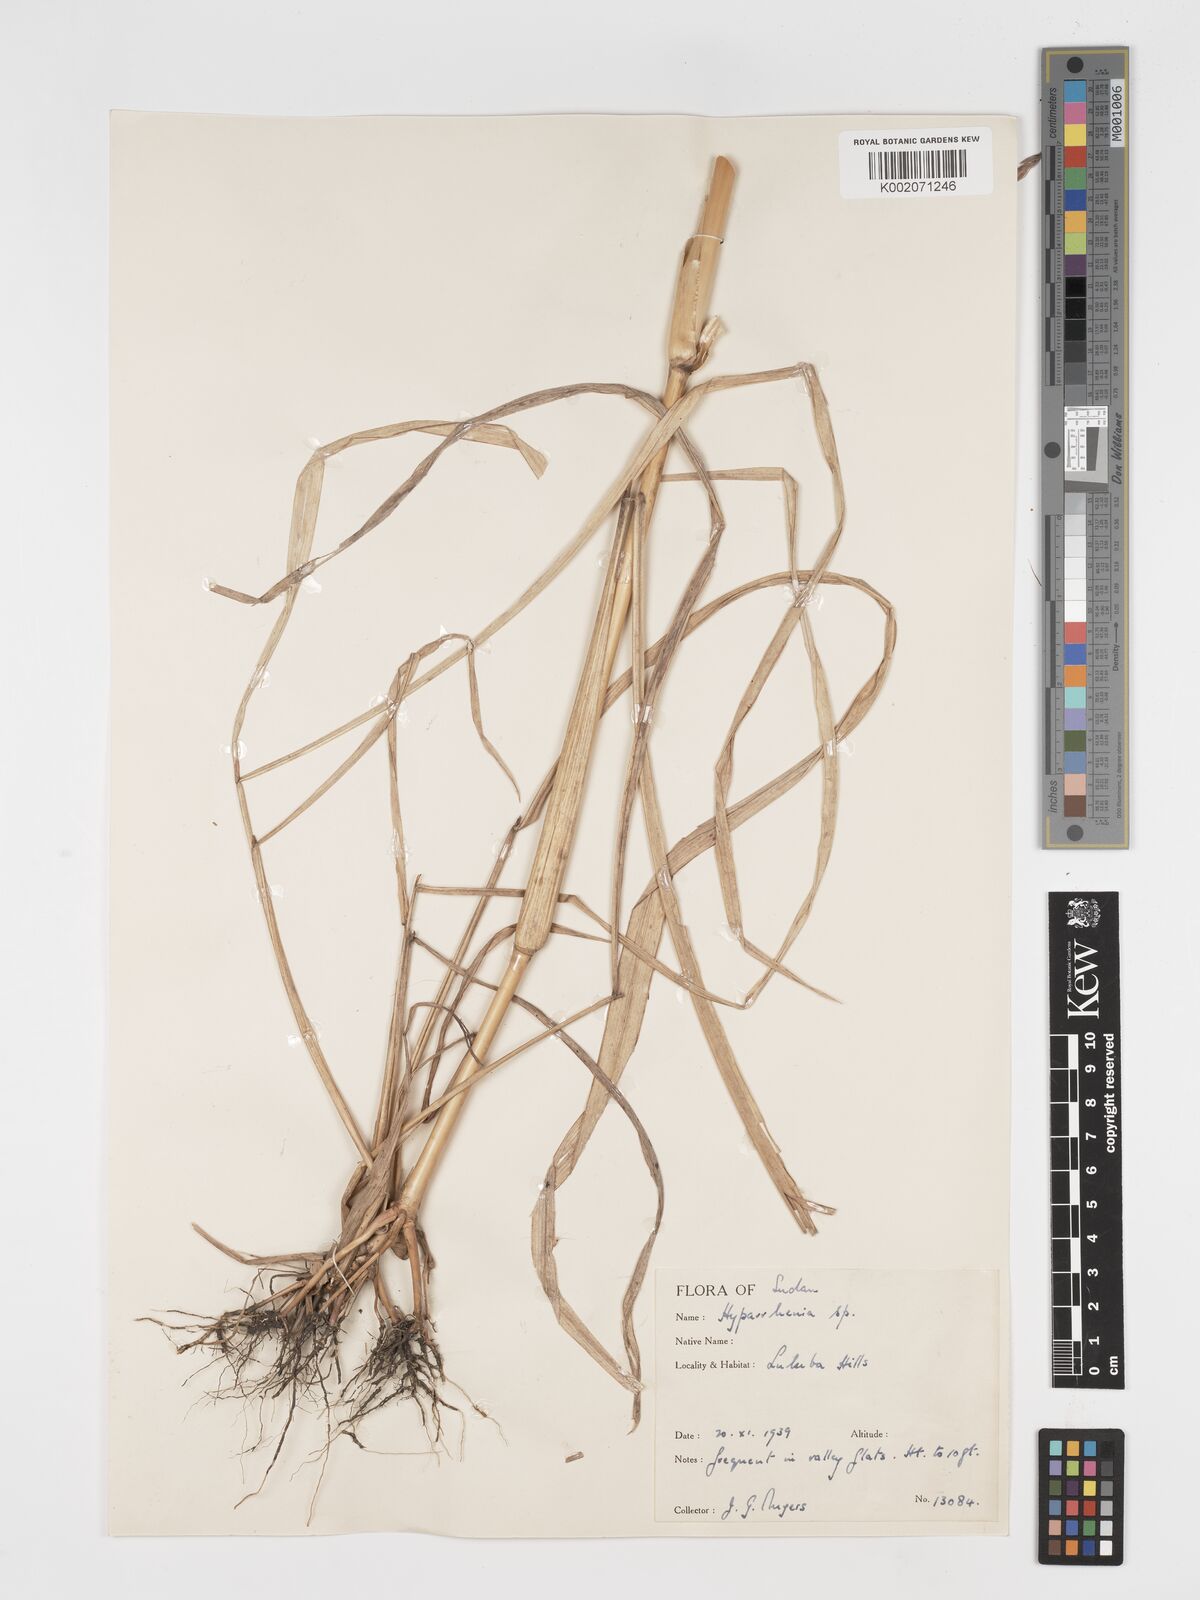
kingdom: Plantae
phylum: Tracheophyta
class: Liliopsida
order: Poales
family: Poaceae
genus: Hyparrhenia
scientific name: Hyparrhenia madaropoda
